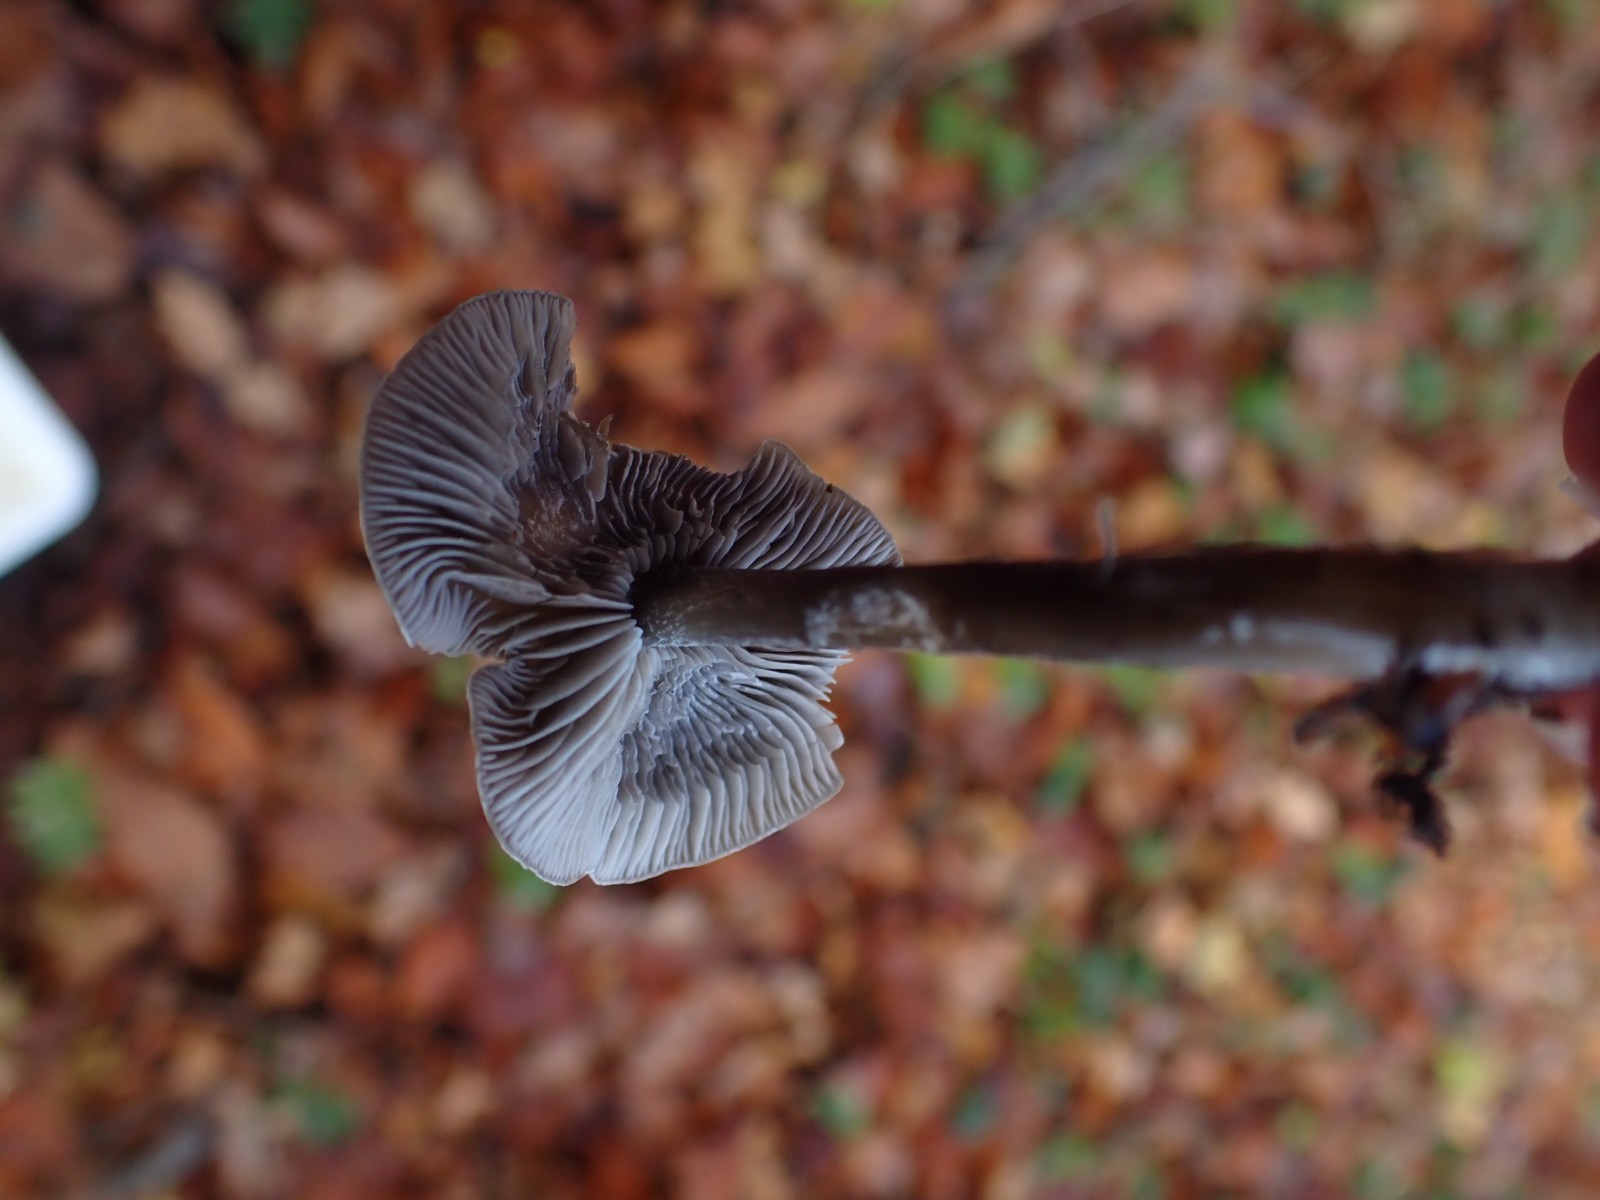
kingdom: Fungi
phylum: Basidiomycota
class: Agaricomycetes
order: Agaricales
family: Lyophyllaceae
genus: Tephrocybe
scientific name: Tephrocybe rancida
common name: mel-gråblad
